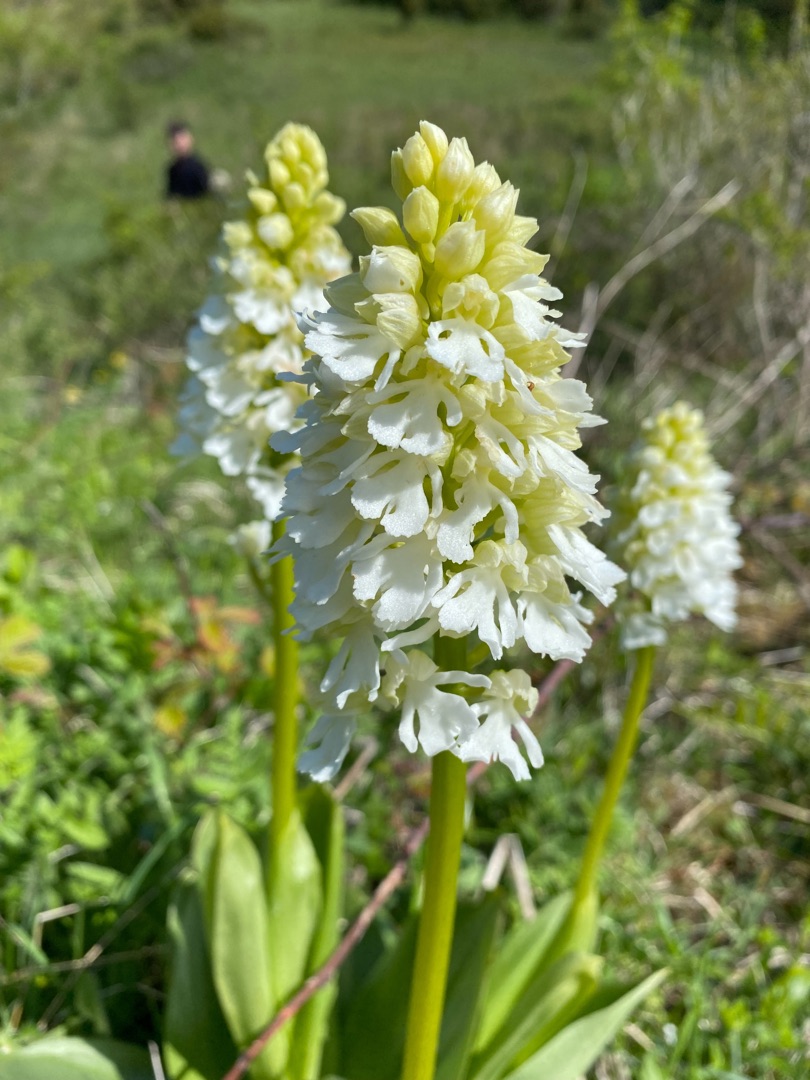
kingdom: Plantae
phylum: Tracheophyta
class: Liliopsida
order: Asparagales
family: Orchidaceae
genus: Orchis
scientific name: Orchis purpurea
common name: Stor gøgeurt
